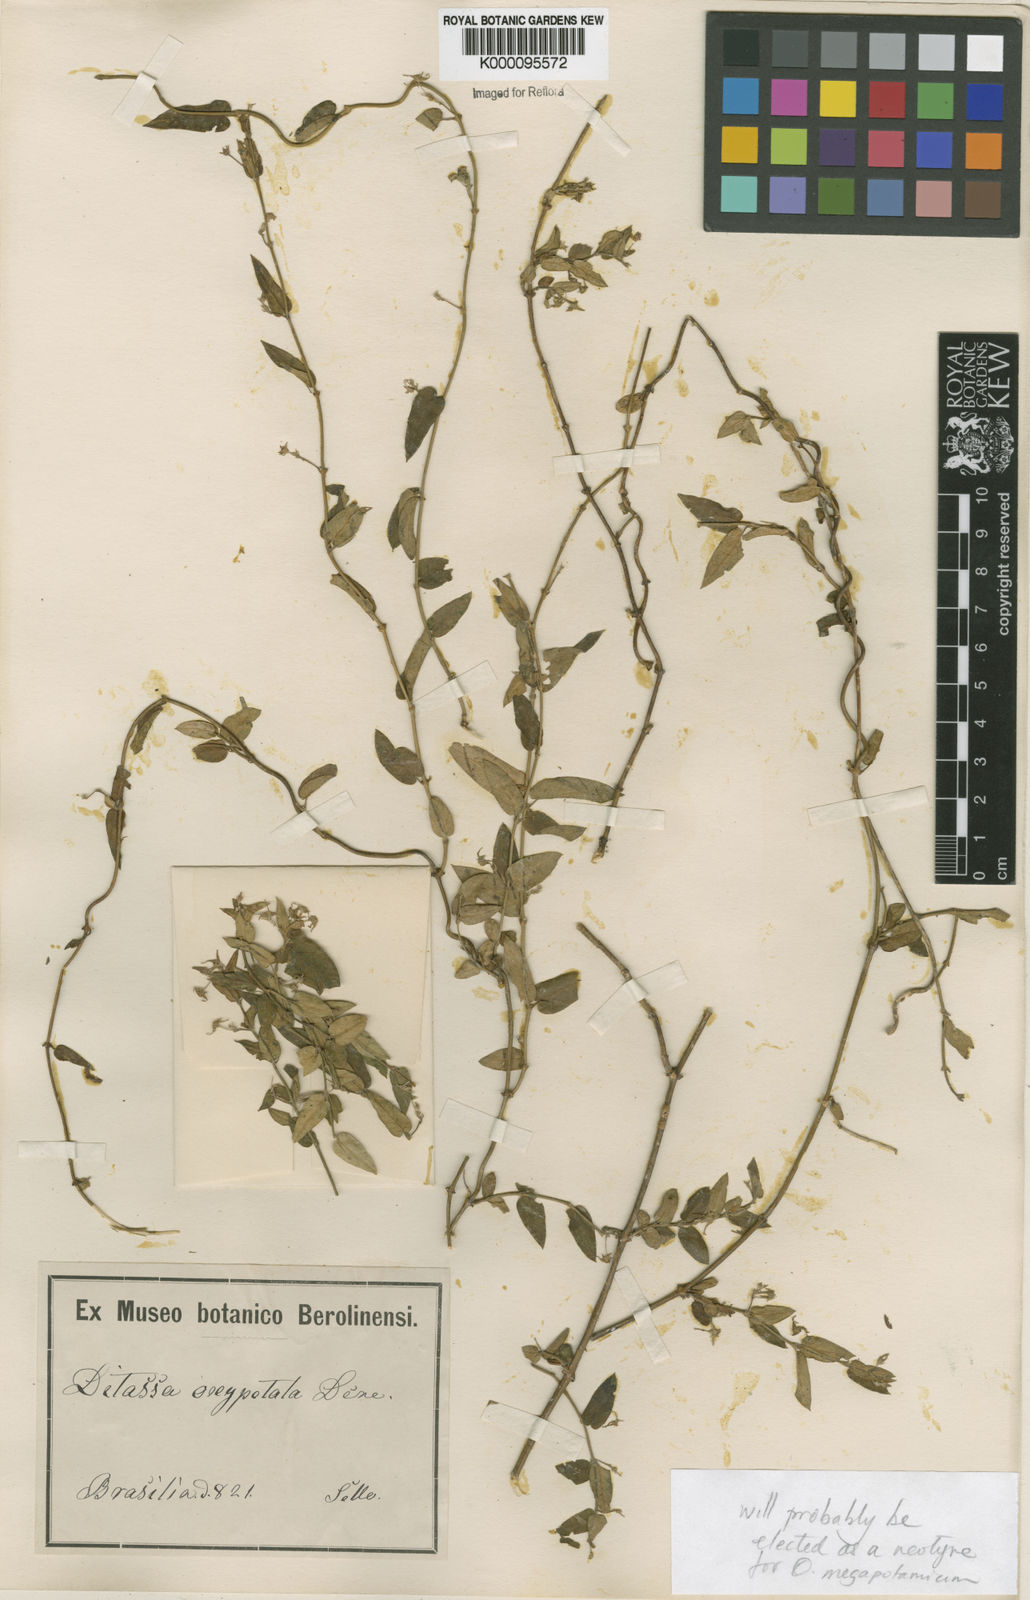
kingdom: Plantae
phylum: Tracheophyta
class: Magnoliopsida
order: Gentianales
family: Apocynaceae
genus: Oxypetalum
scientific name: Oxypetalum megapotamicum
